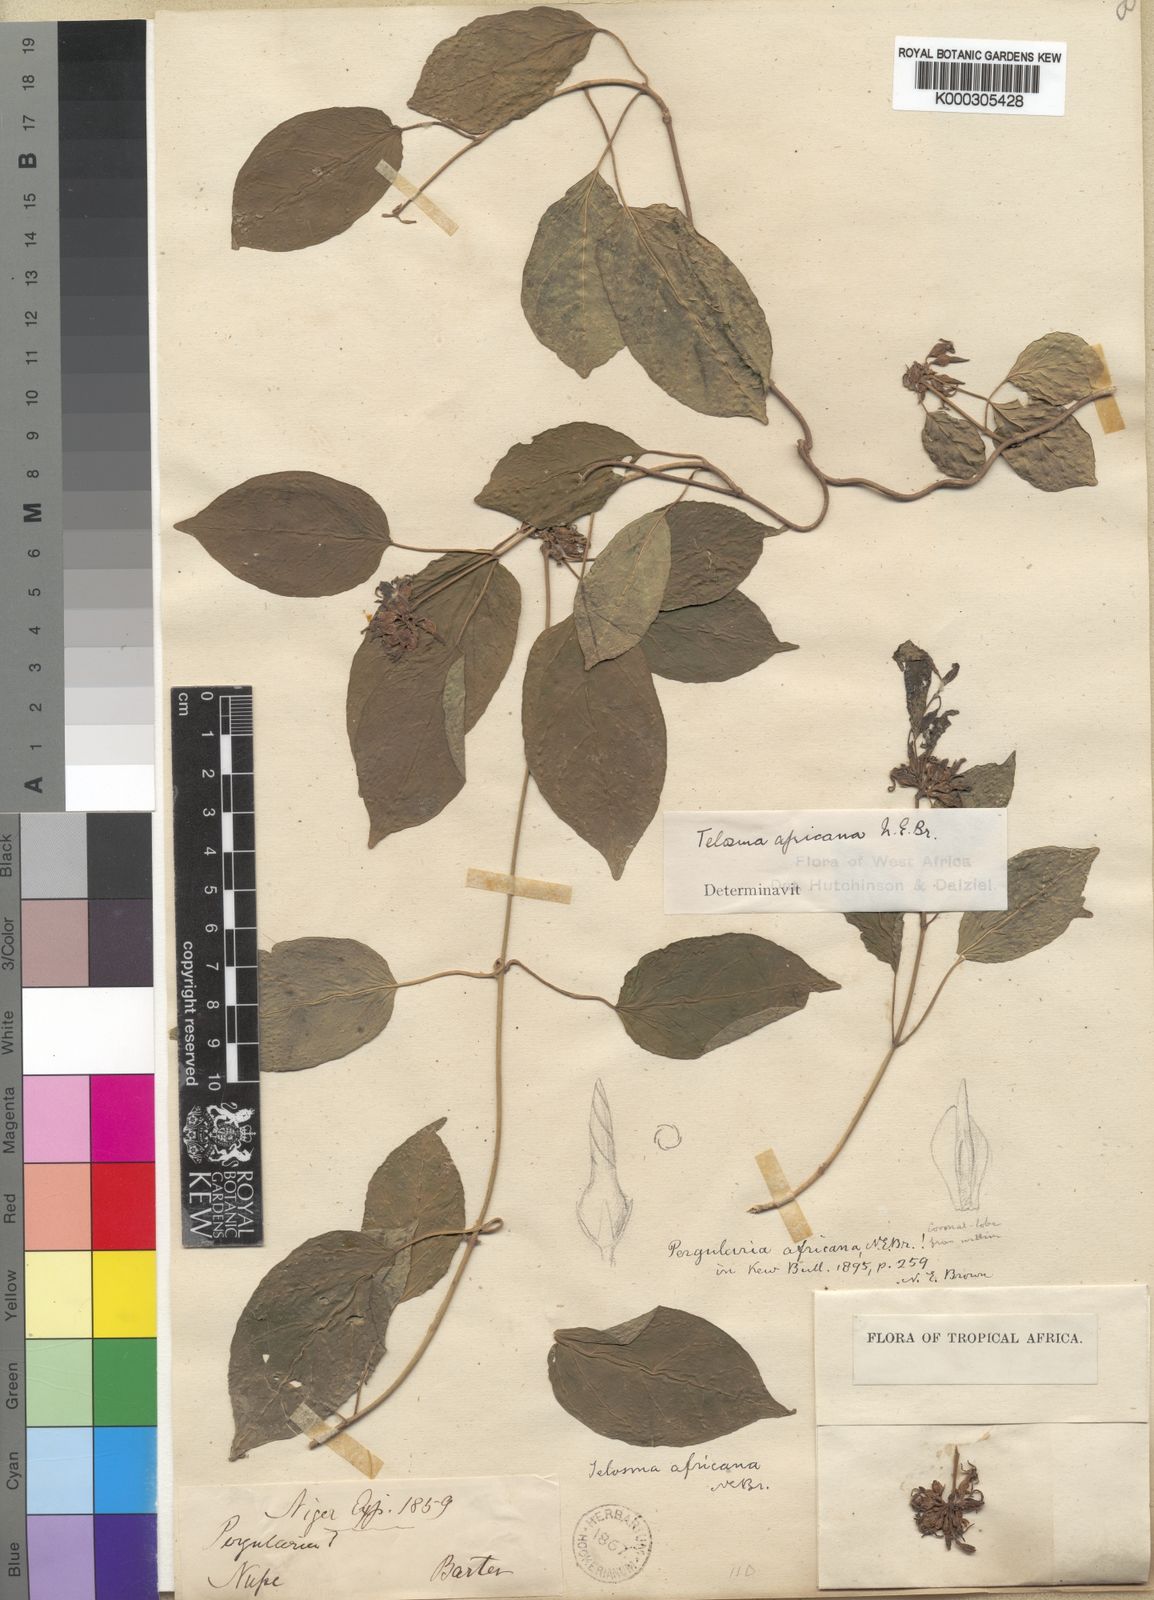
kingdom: Plantae
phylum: Tracheophyta
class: Magnoliopsida
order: Gentianales
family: Apocynaceae
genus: Telosma
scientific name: Telosma africana
